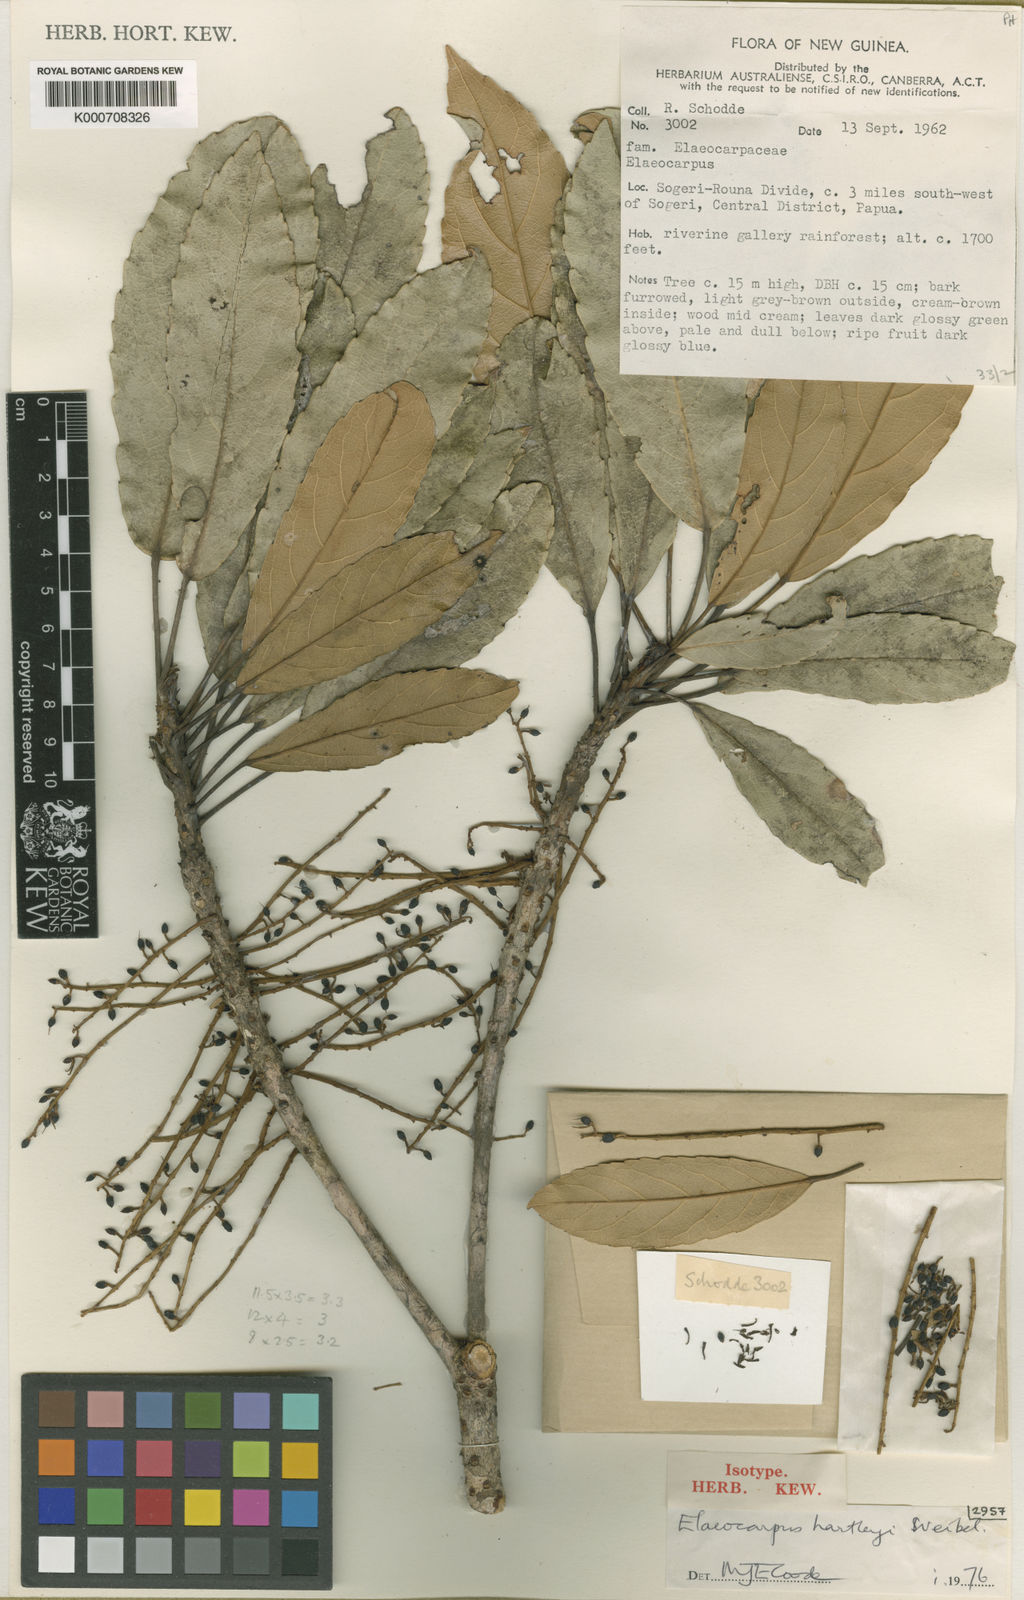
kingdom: Plantae
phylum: Tracheophyta
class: Magnoliopsida
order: Oxalidales
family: Elaeocarpaceae
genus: Elaeocarpus
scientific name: Elaeocarpus hartleyi
